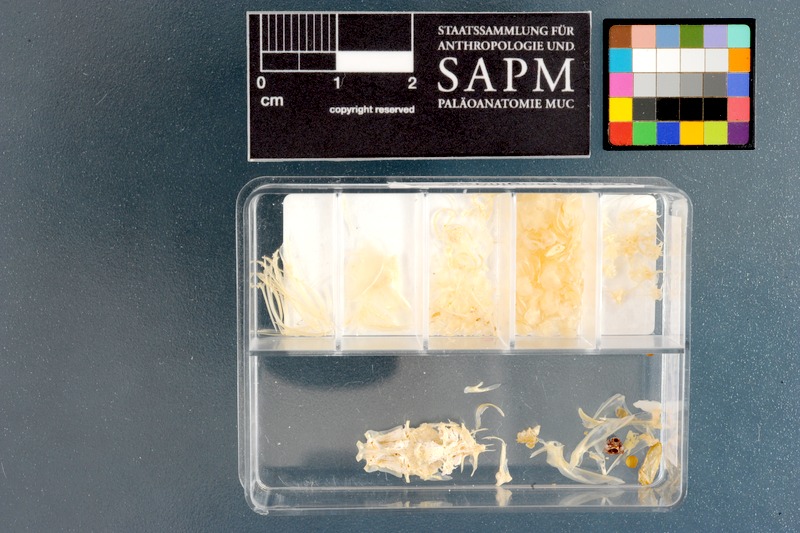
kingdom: Animalia
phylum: Chordata
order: Mugiliformes
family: Mugilidae
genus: Chelon
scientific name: Chelon tricuspidens
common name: Striped mullet
